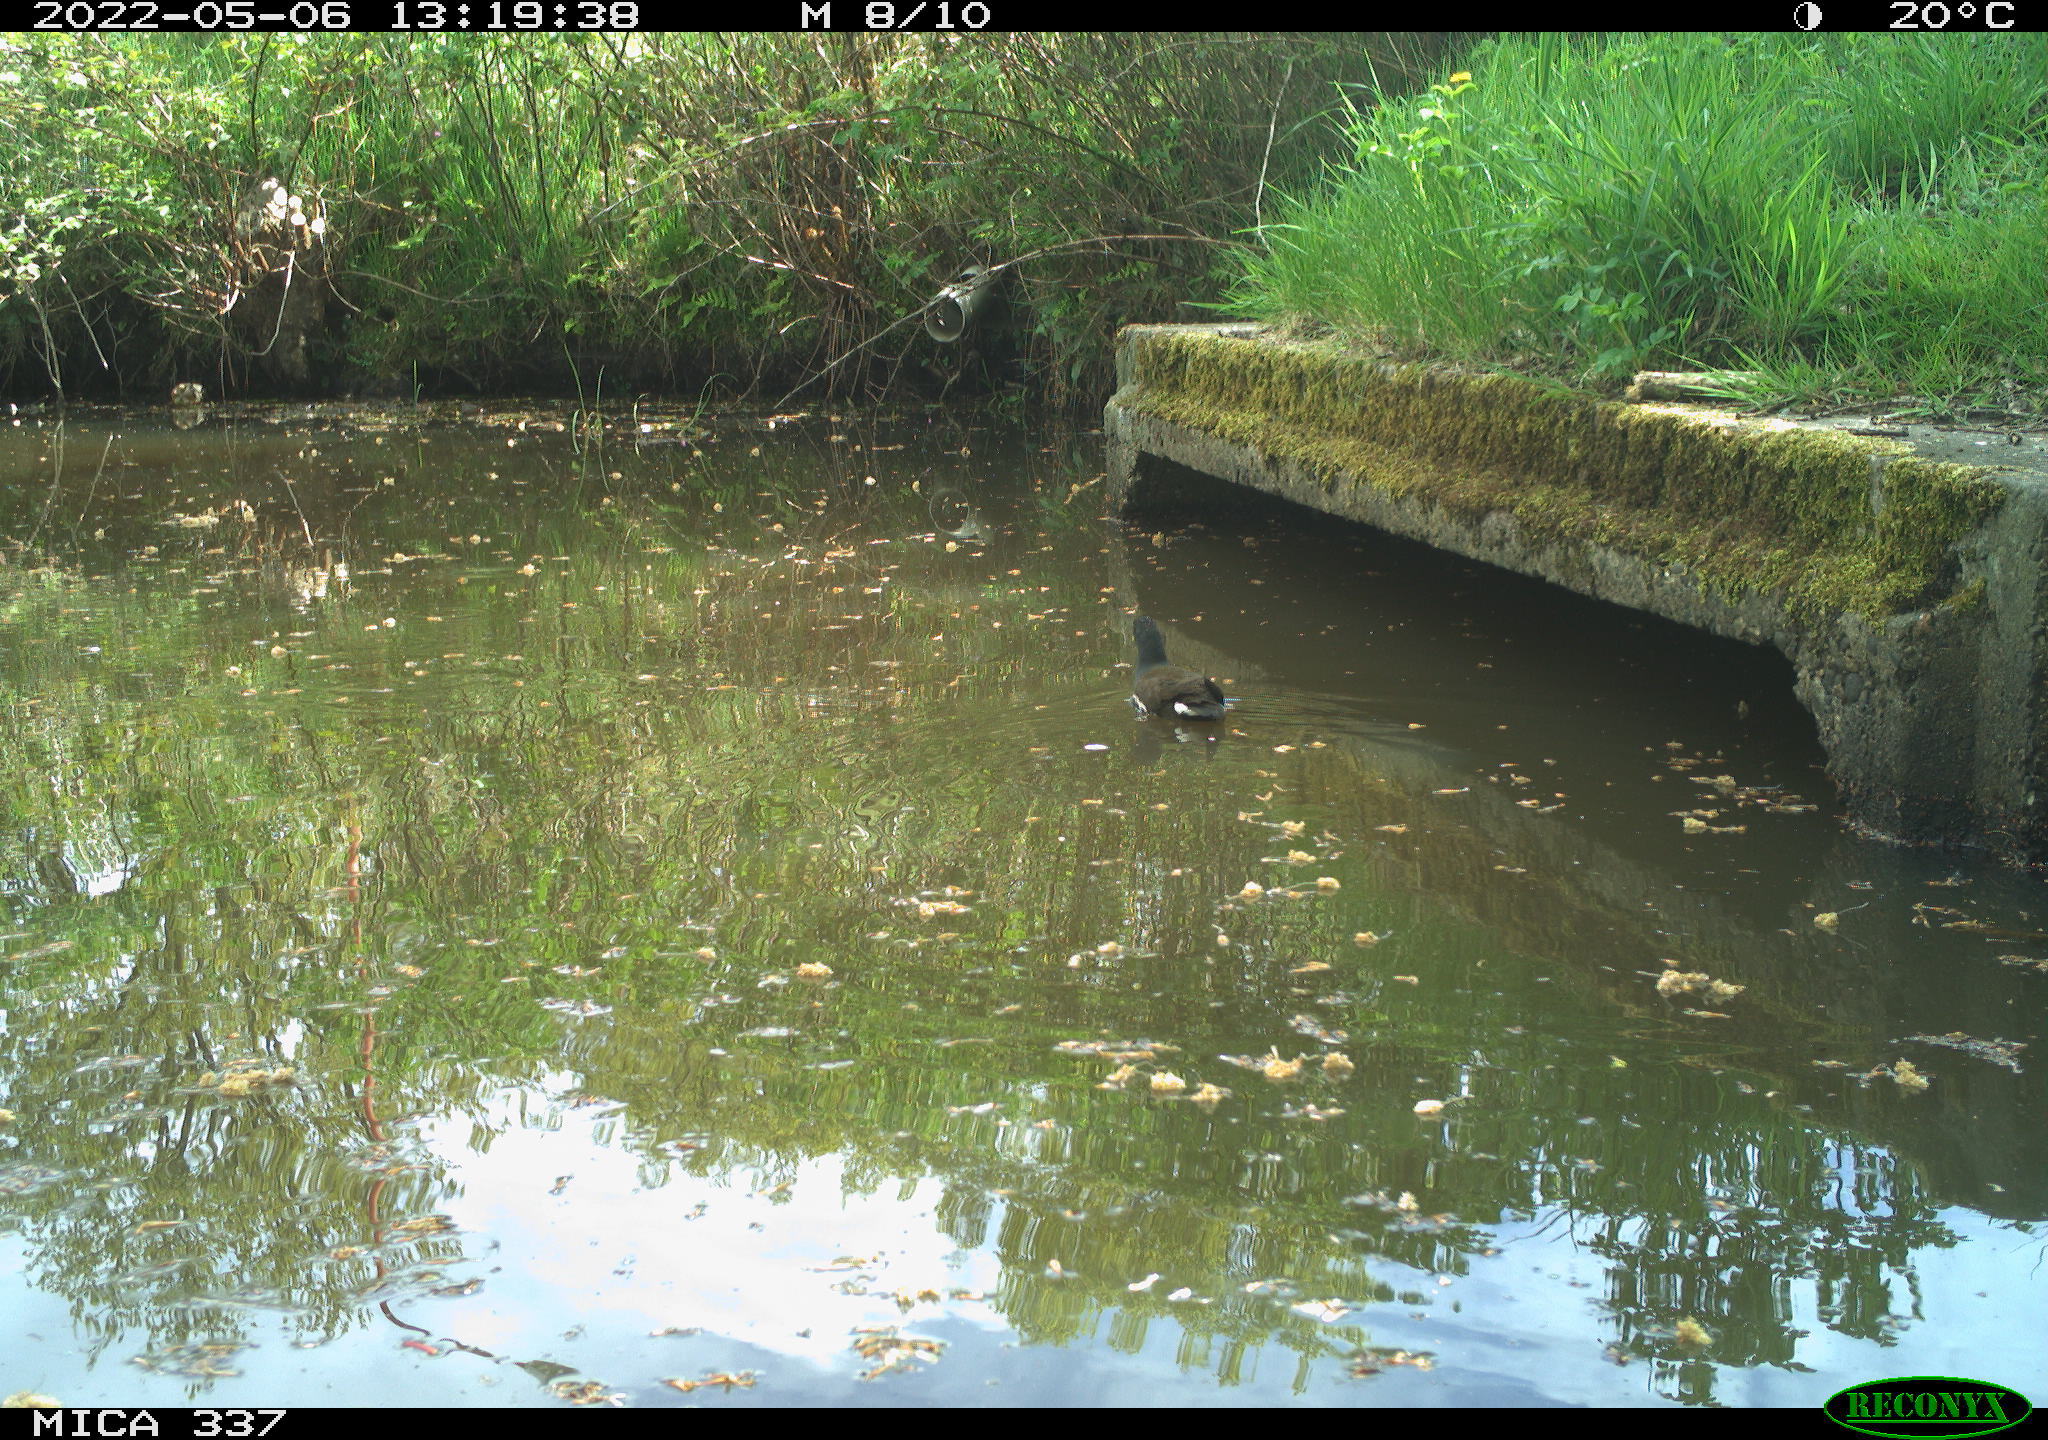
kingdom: Animalia
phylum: Chordata
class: Aves
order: Gruiformes
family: Rallidae
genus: Gallinula
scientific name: Gallinula chloropus
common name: Common moorhen
